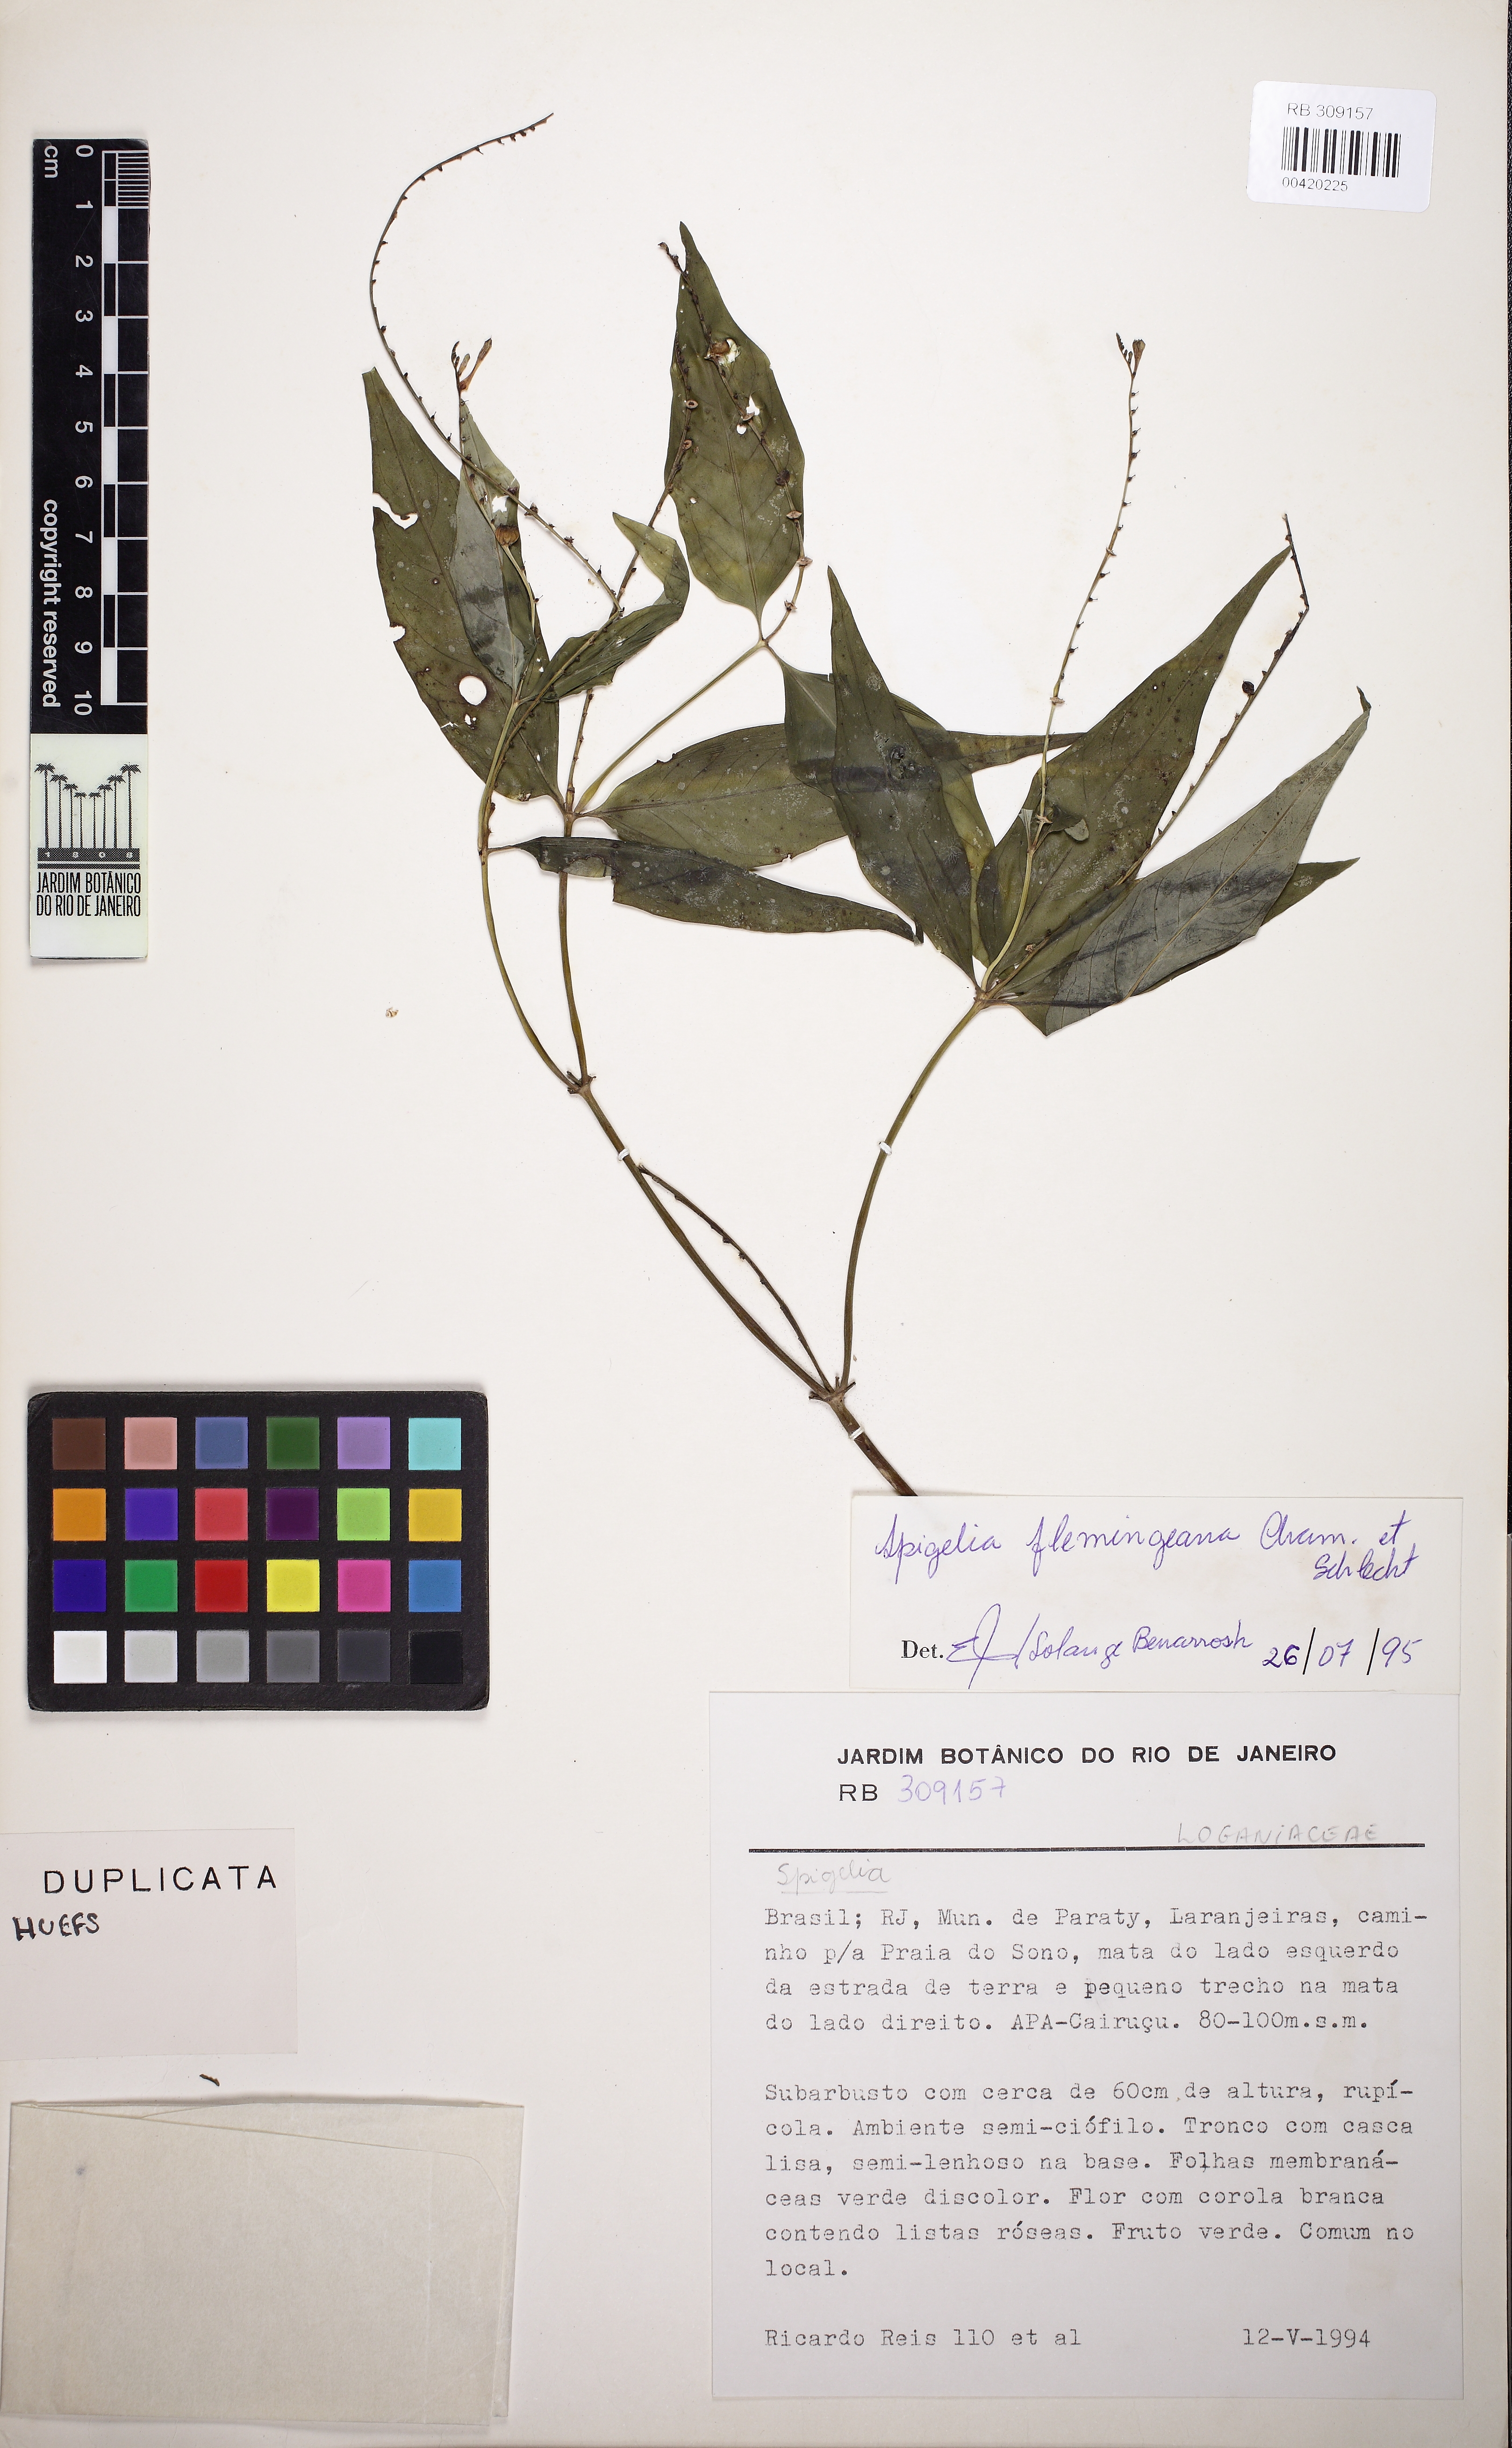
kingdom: Plantae
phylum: Tracheophyta
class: Magnoliopsida
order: Gentianales
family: Loganiaceae
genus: Spigelia
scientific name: Spigelia flemmingiana
